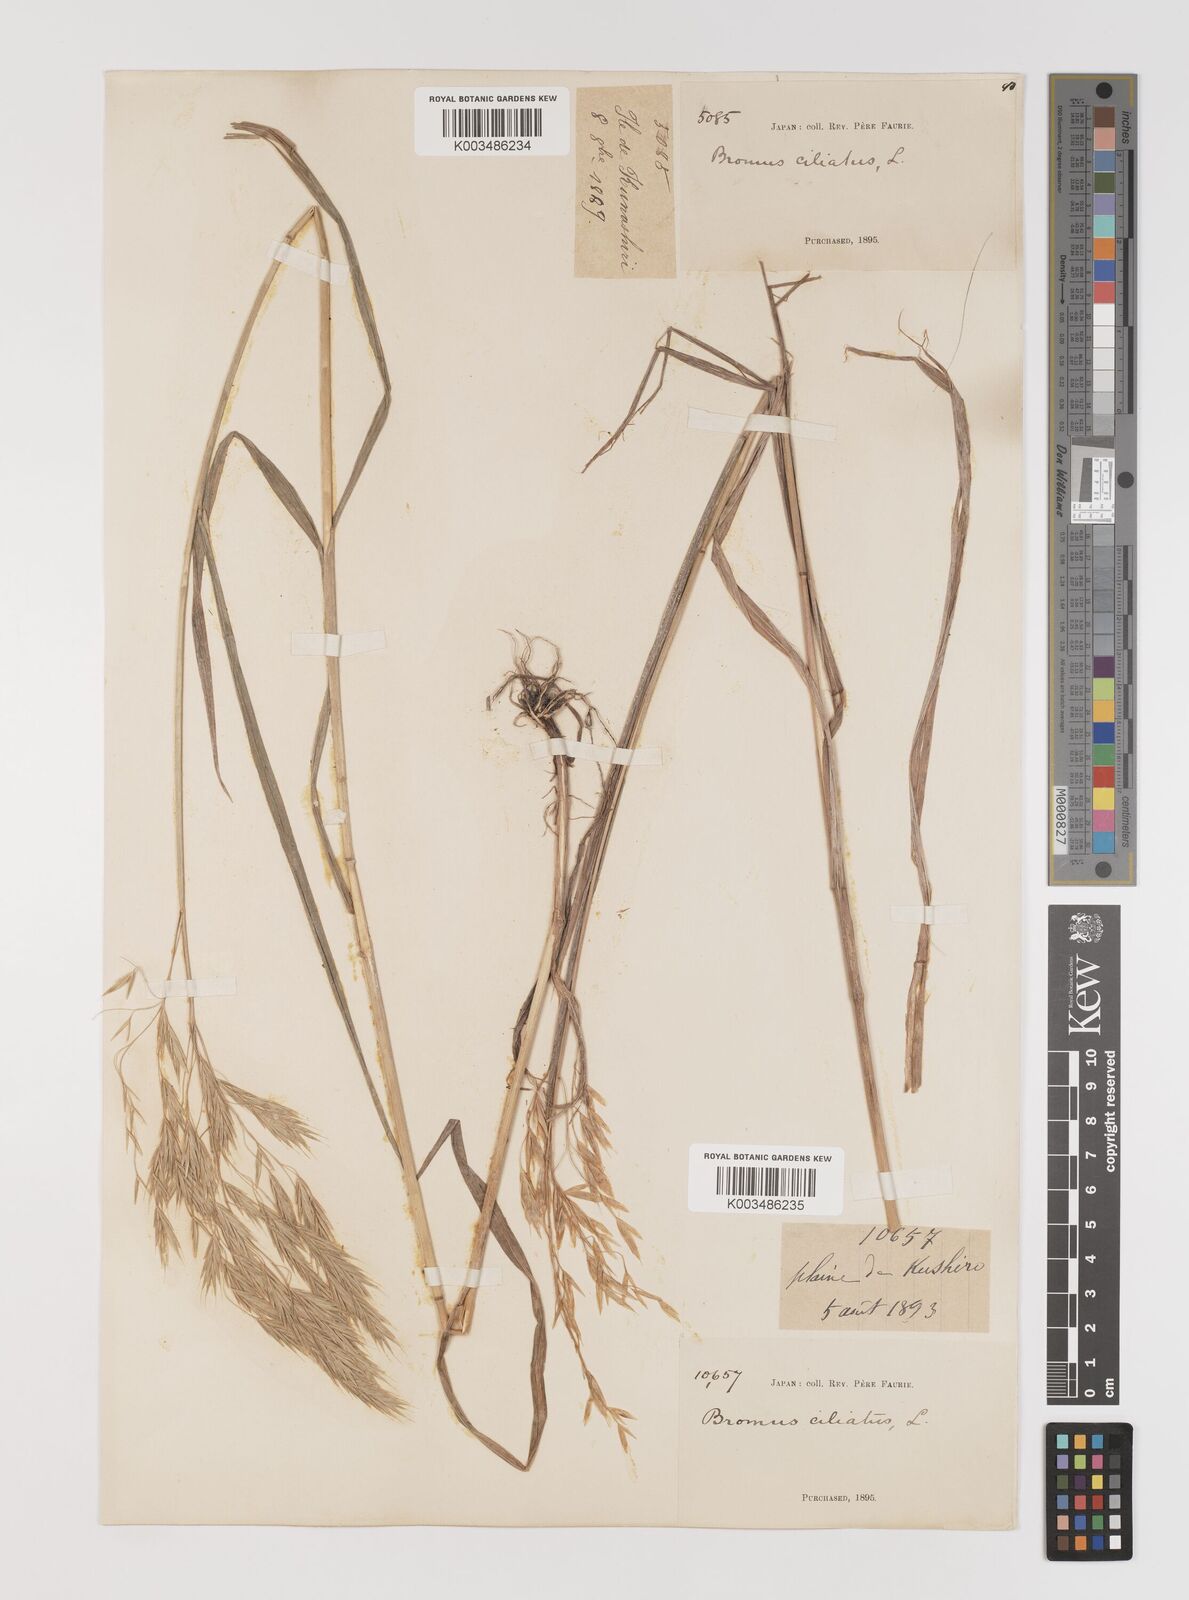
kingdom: Plantae
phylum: Tracheophyta
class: Liliopsida
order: Poales
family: Poaceae
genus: Bromus
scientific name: Bromus ciliatus
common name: Fringe brome
